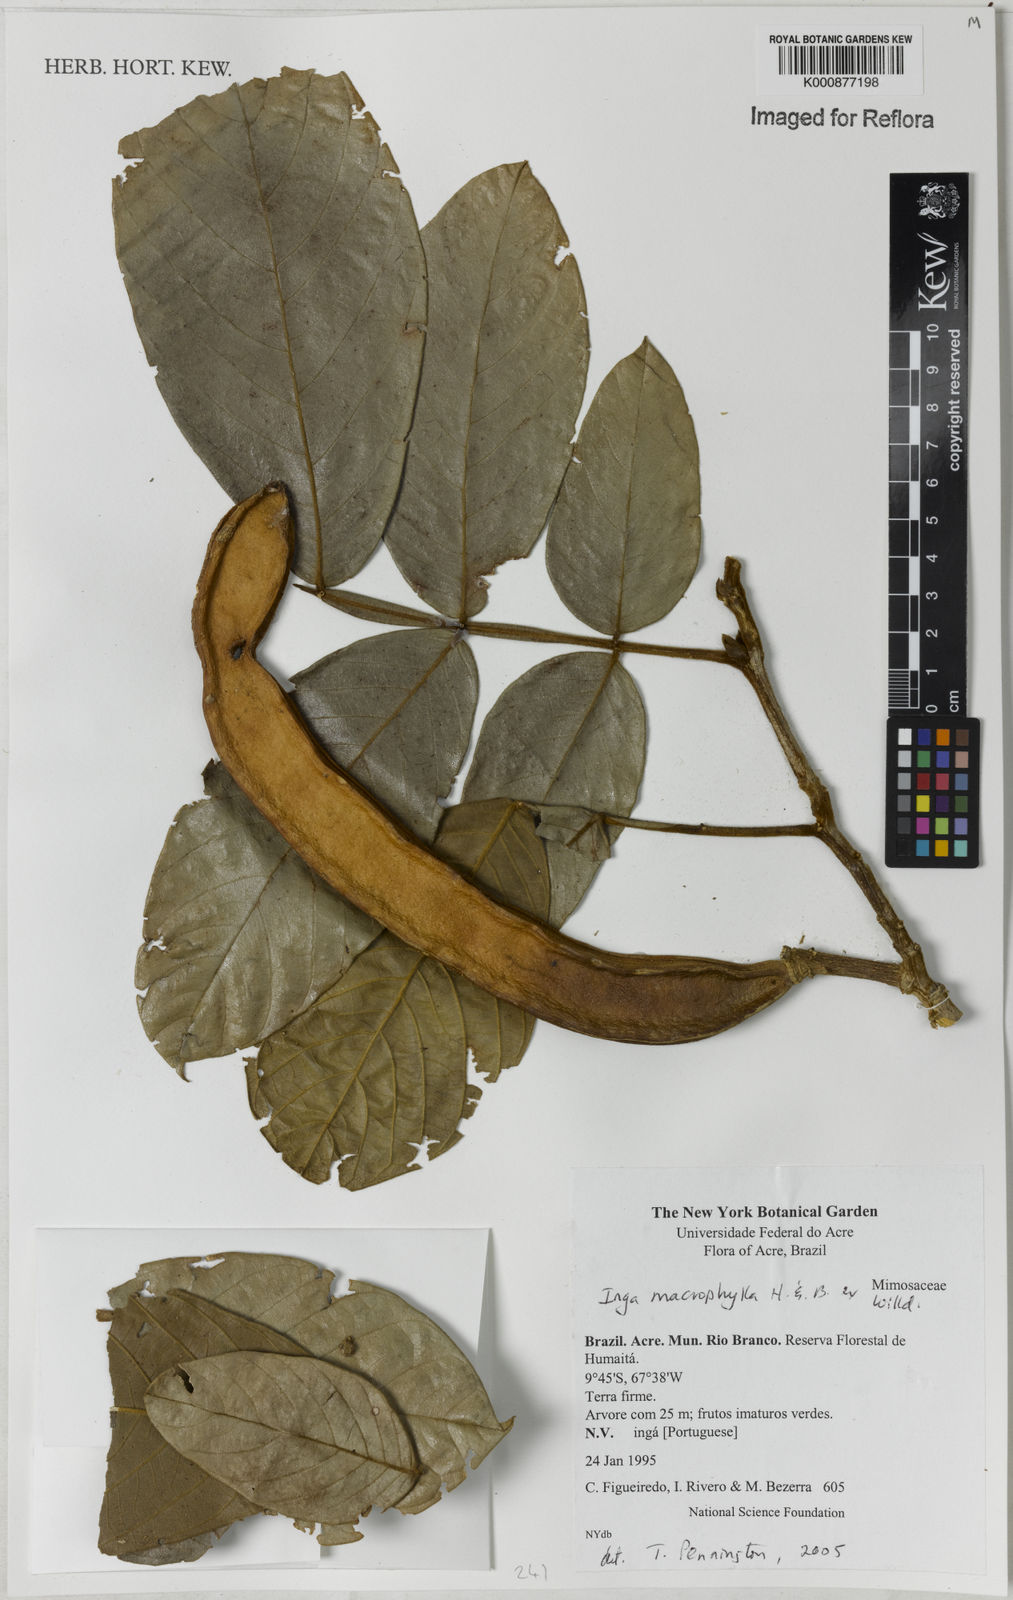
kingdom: Plantae
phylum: Tracheophyta
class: Magnoliopsida
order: Fabales
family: Fabaceae
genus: Inga
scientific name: Inga macrophylla
